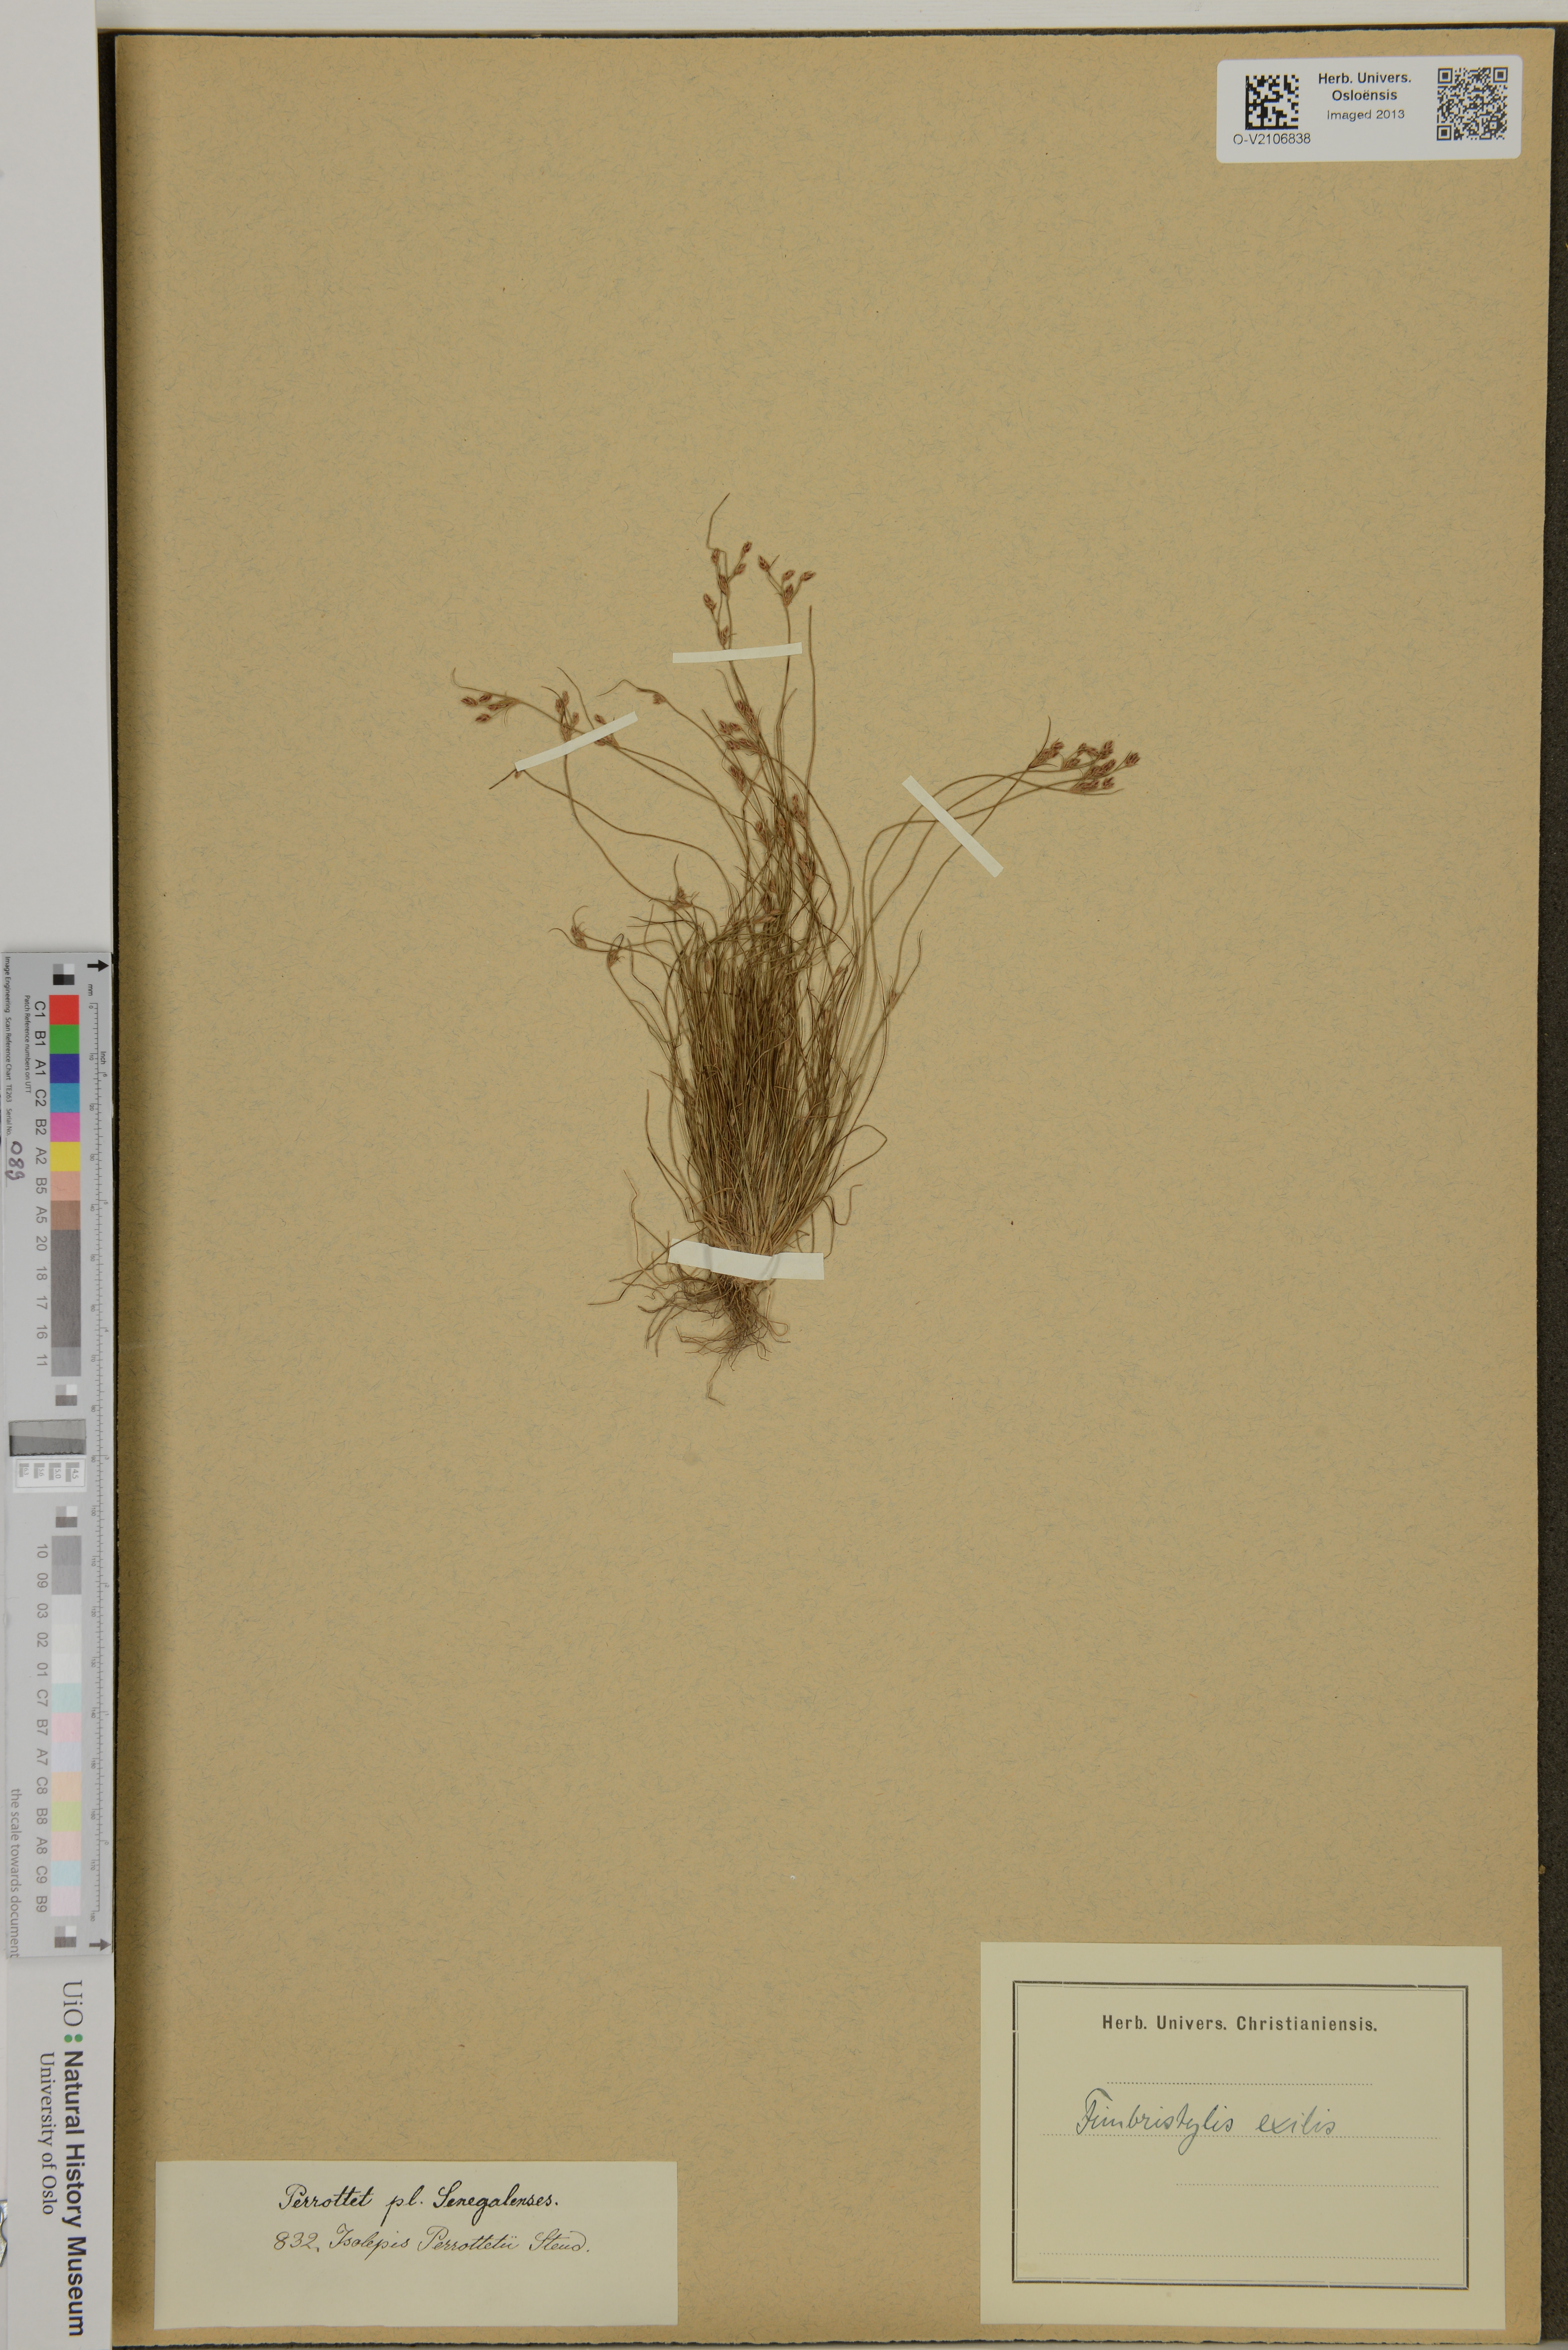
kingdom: Plantae
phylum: Tracheophyta
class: Liliopsida
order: Poales
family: Cyperaceae
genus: Bulbostylis
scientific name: Bulbostylis hispidula
